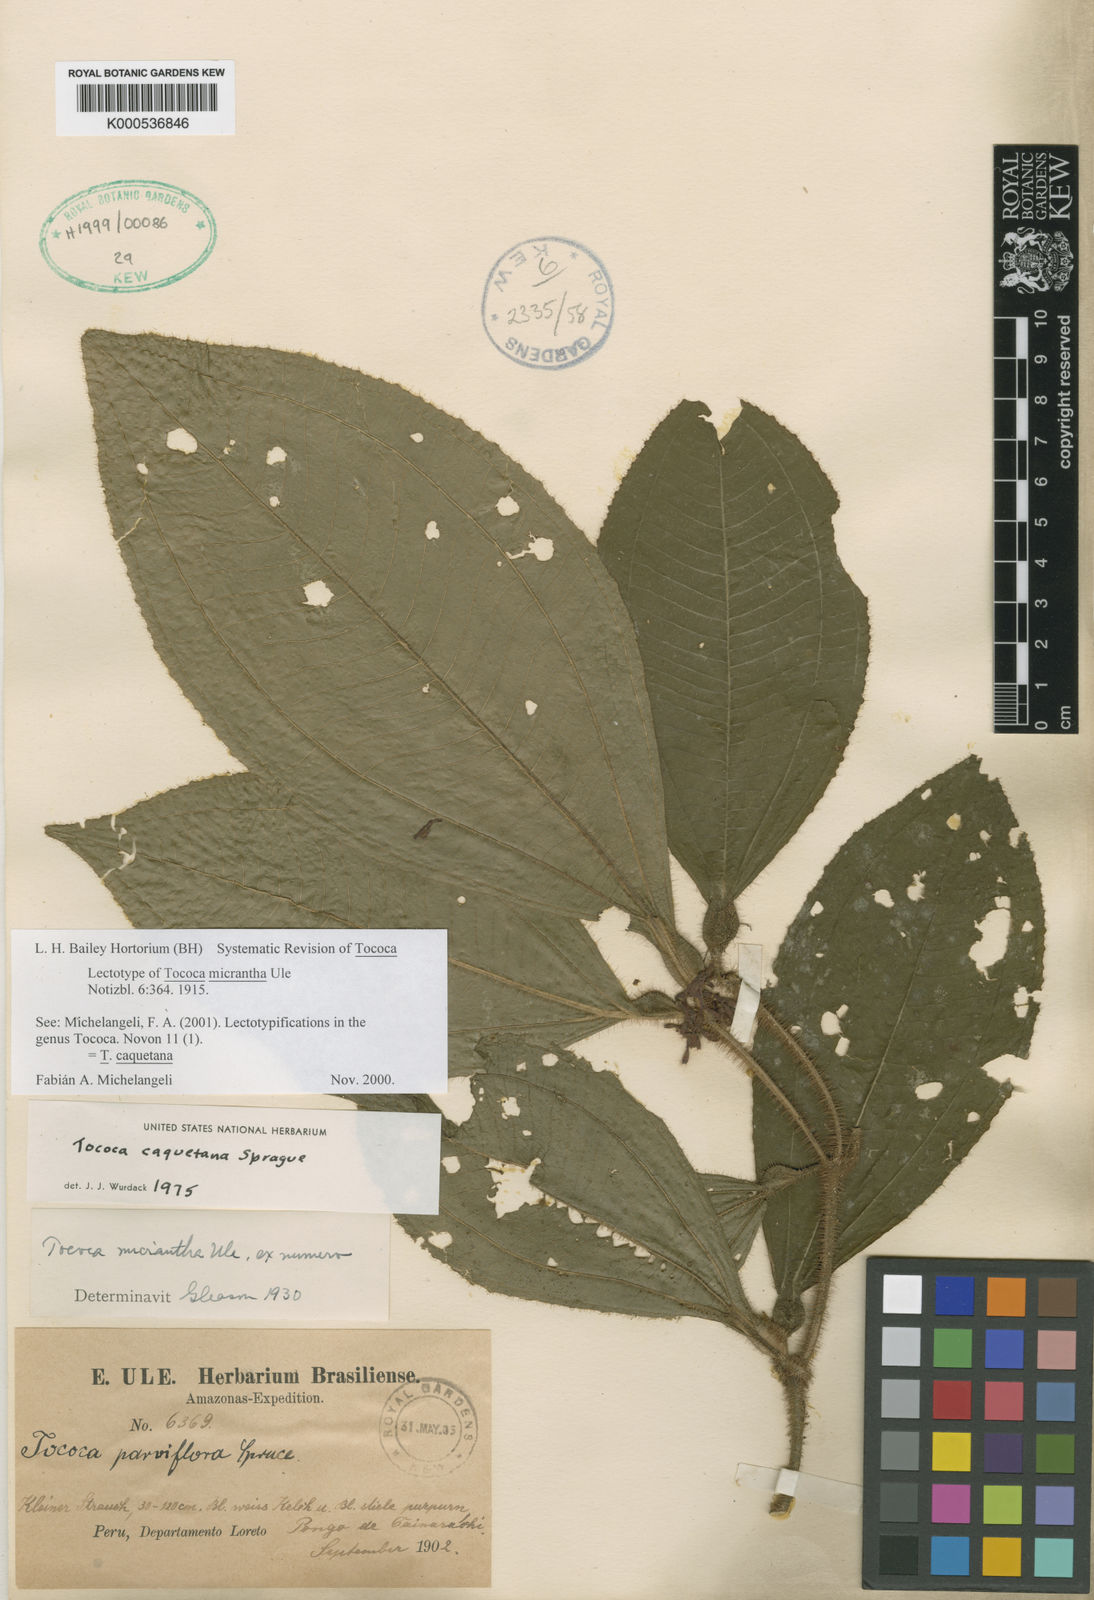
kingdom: Plantae
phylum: Tracheophyta
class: Magnoliopsida
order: Myrtales
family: Melastomataceae
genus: Miconia
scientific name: Miconia caquetana
